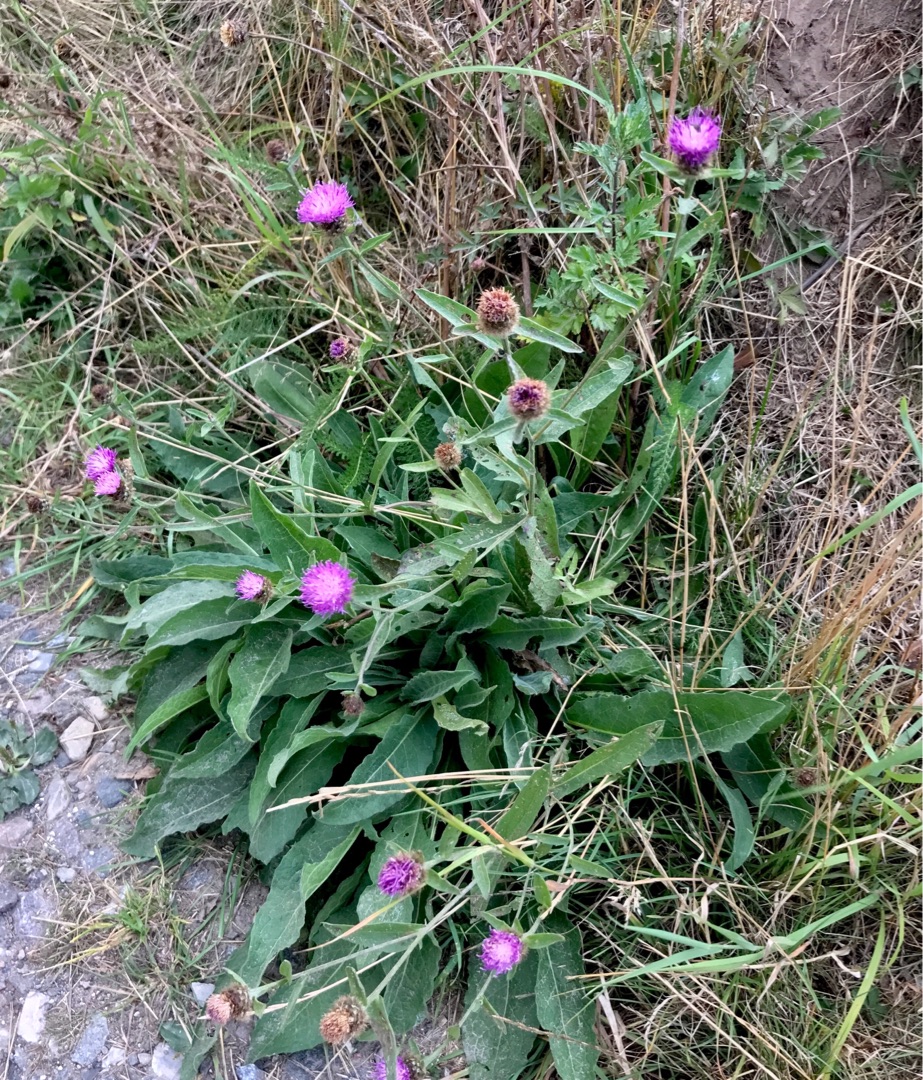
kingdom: Plantae
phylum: Tracheophyta
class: Magnoliopsida
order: Asterales
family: Asteraceae
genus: Centaurea
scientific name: Centaurea nigra
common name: Sorthoved-knopurt
